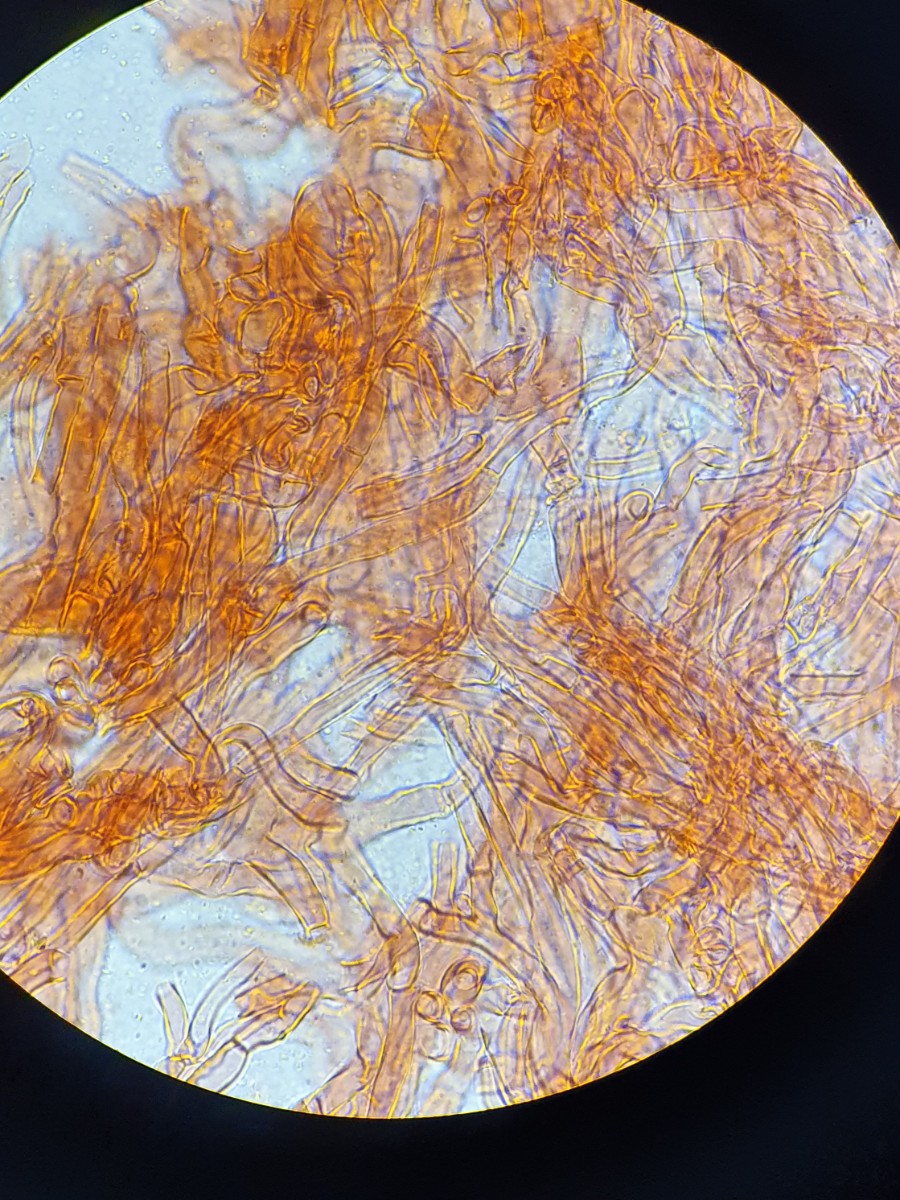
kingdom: Fungi
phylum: Basidiomycota
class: Agaricomycetes
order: Boletales
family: Sclerodermataceae
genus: Scleroderma
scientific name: Scleroderma verrucosum
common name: stilket bruskbold
